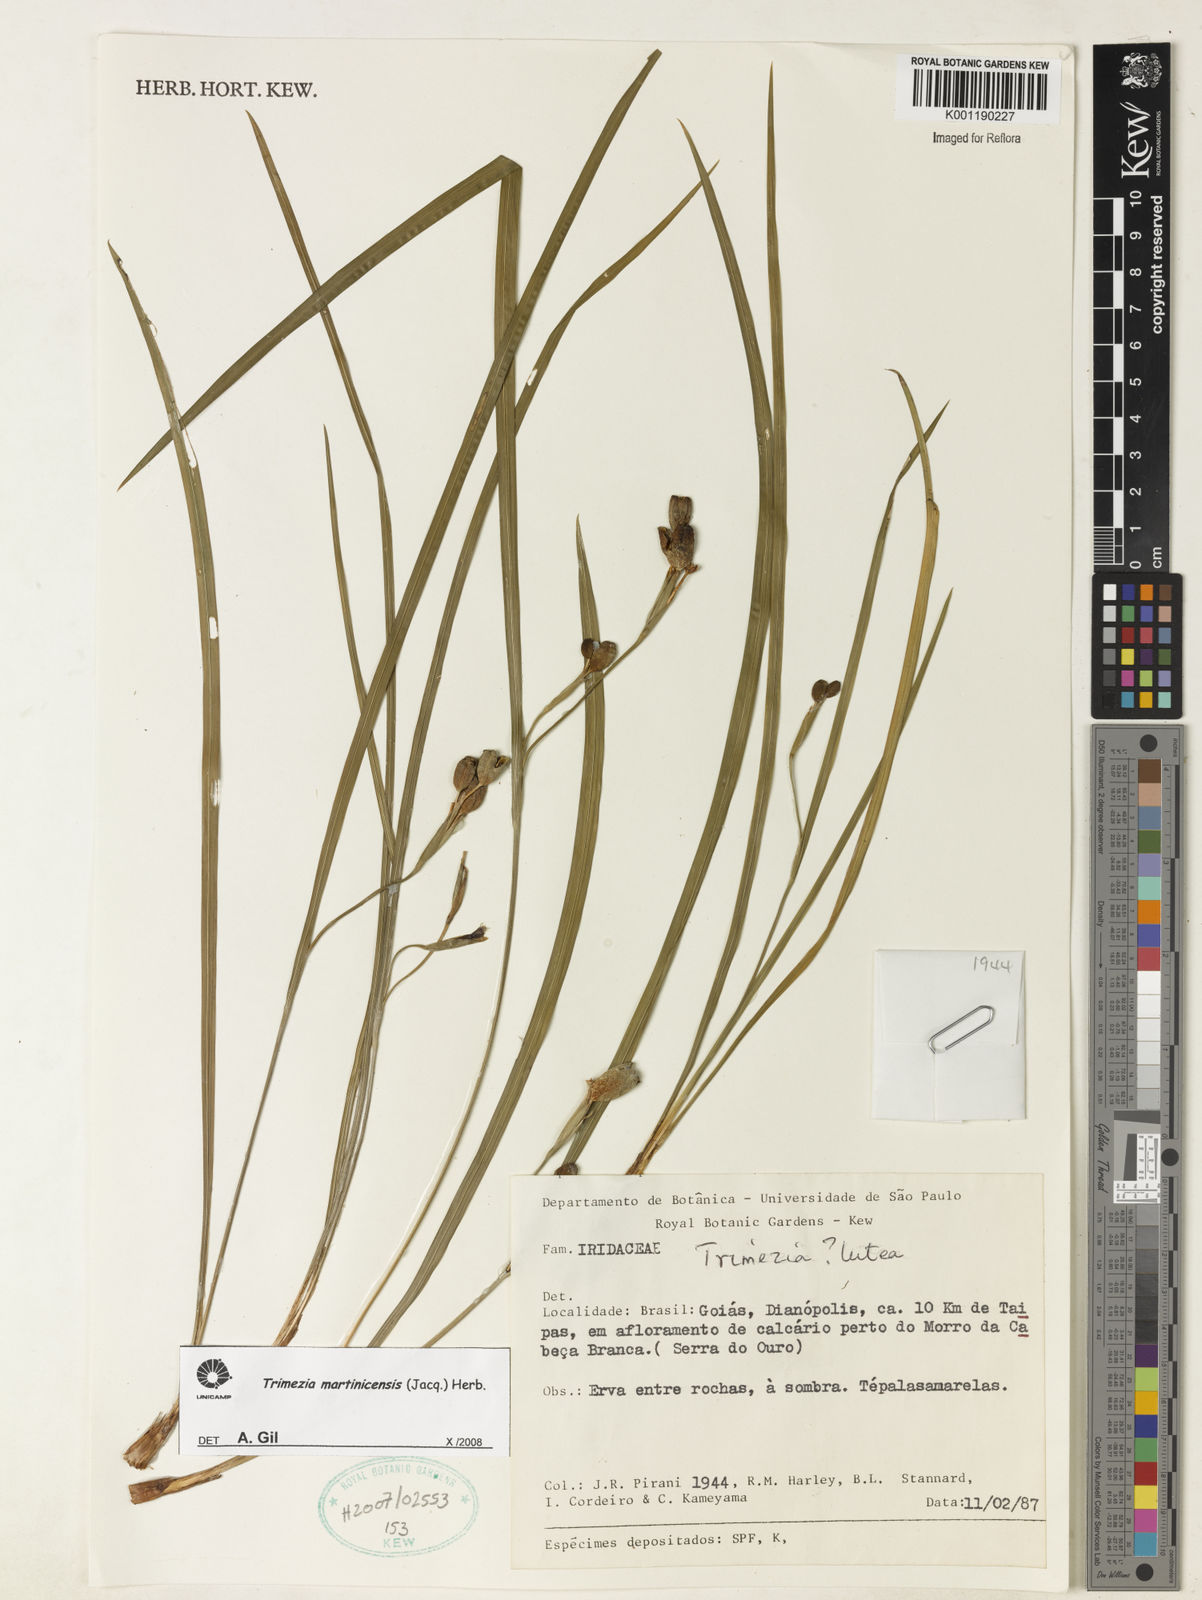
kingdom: Plantae
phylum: Tracheophyta
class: Liliopsida
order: Asparagales
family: Iridaceae
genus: Trimezia
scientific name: Trimezia martinicensis
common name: Martinique trimezia
